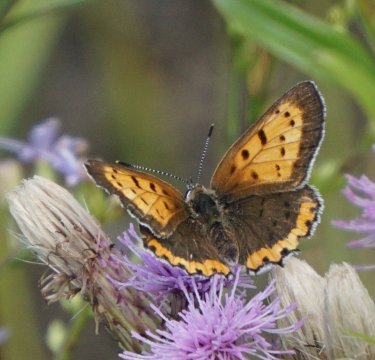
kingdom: Animalia
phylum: Arthropoda
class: Insecta
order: Lepidoptera
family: Sesiidae
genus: Sesia
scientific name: Sesia Lycaena hyllus
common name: Bronze Copper
